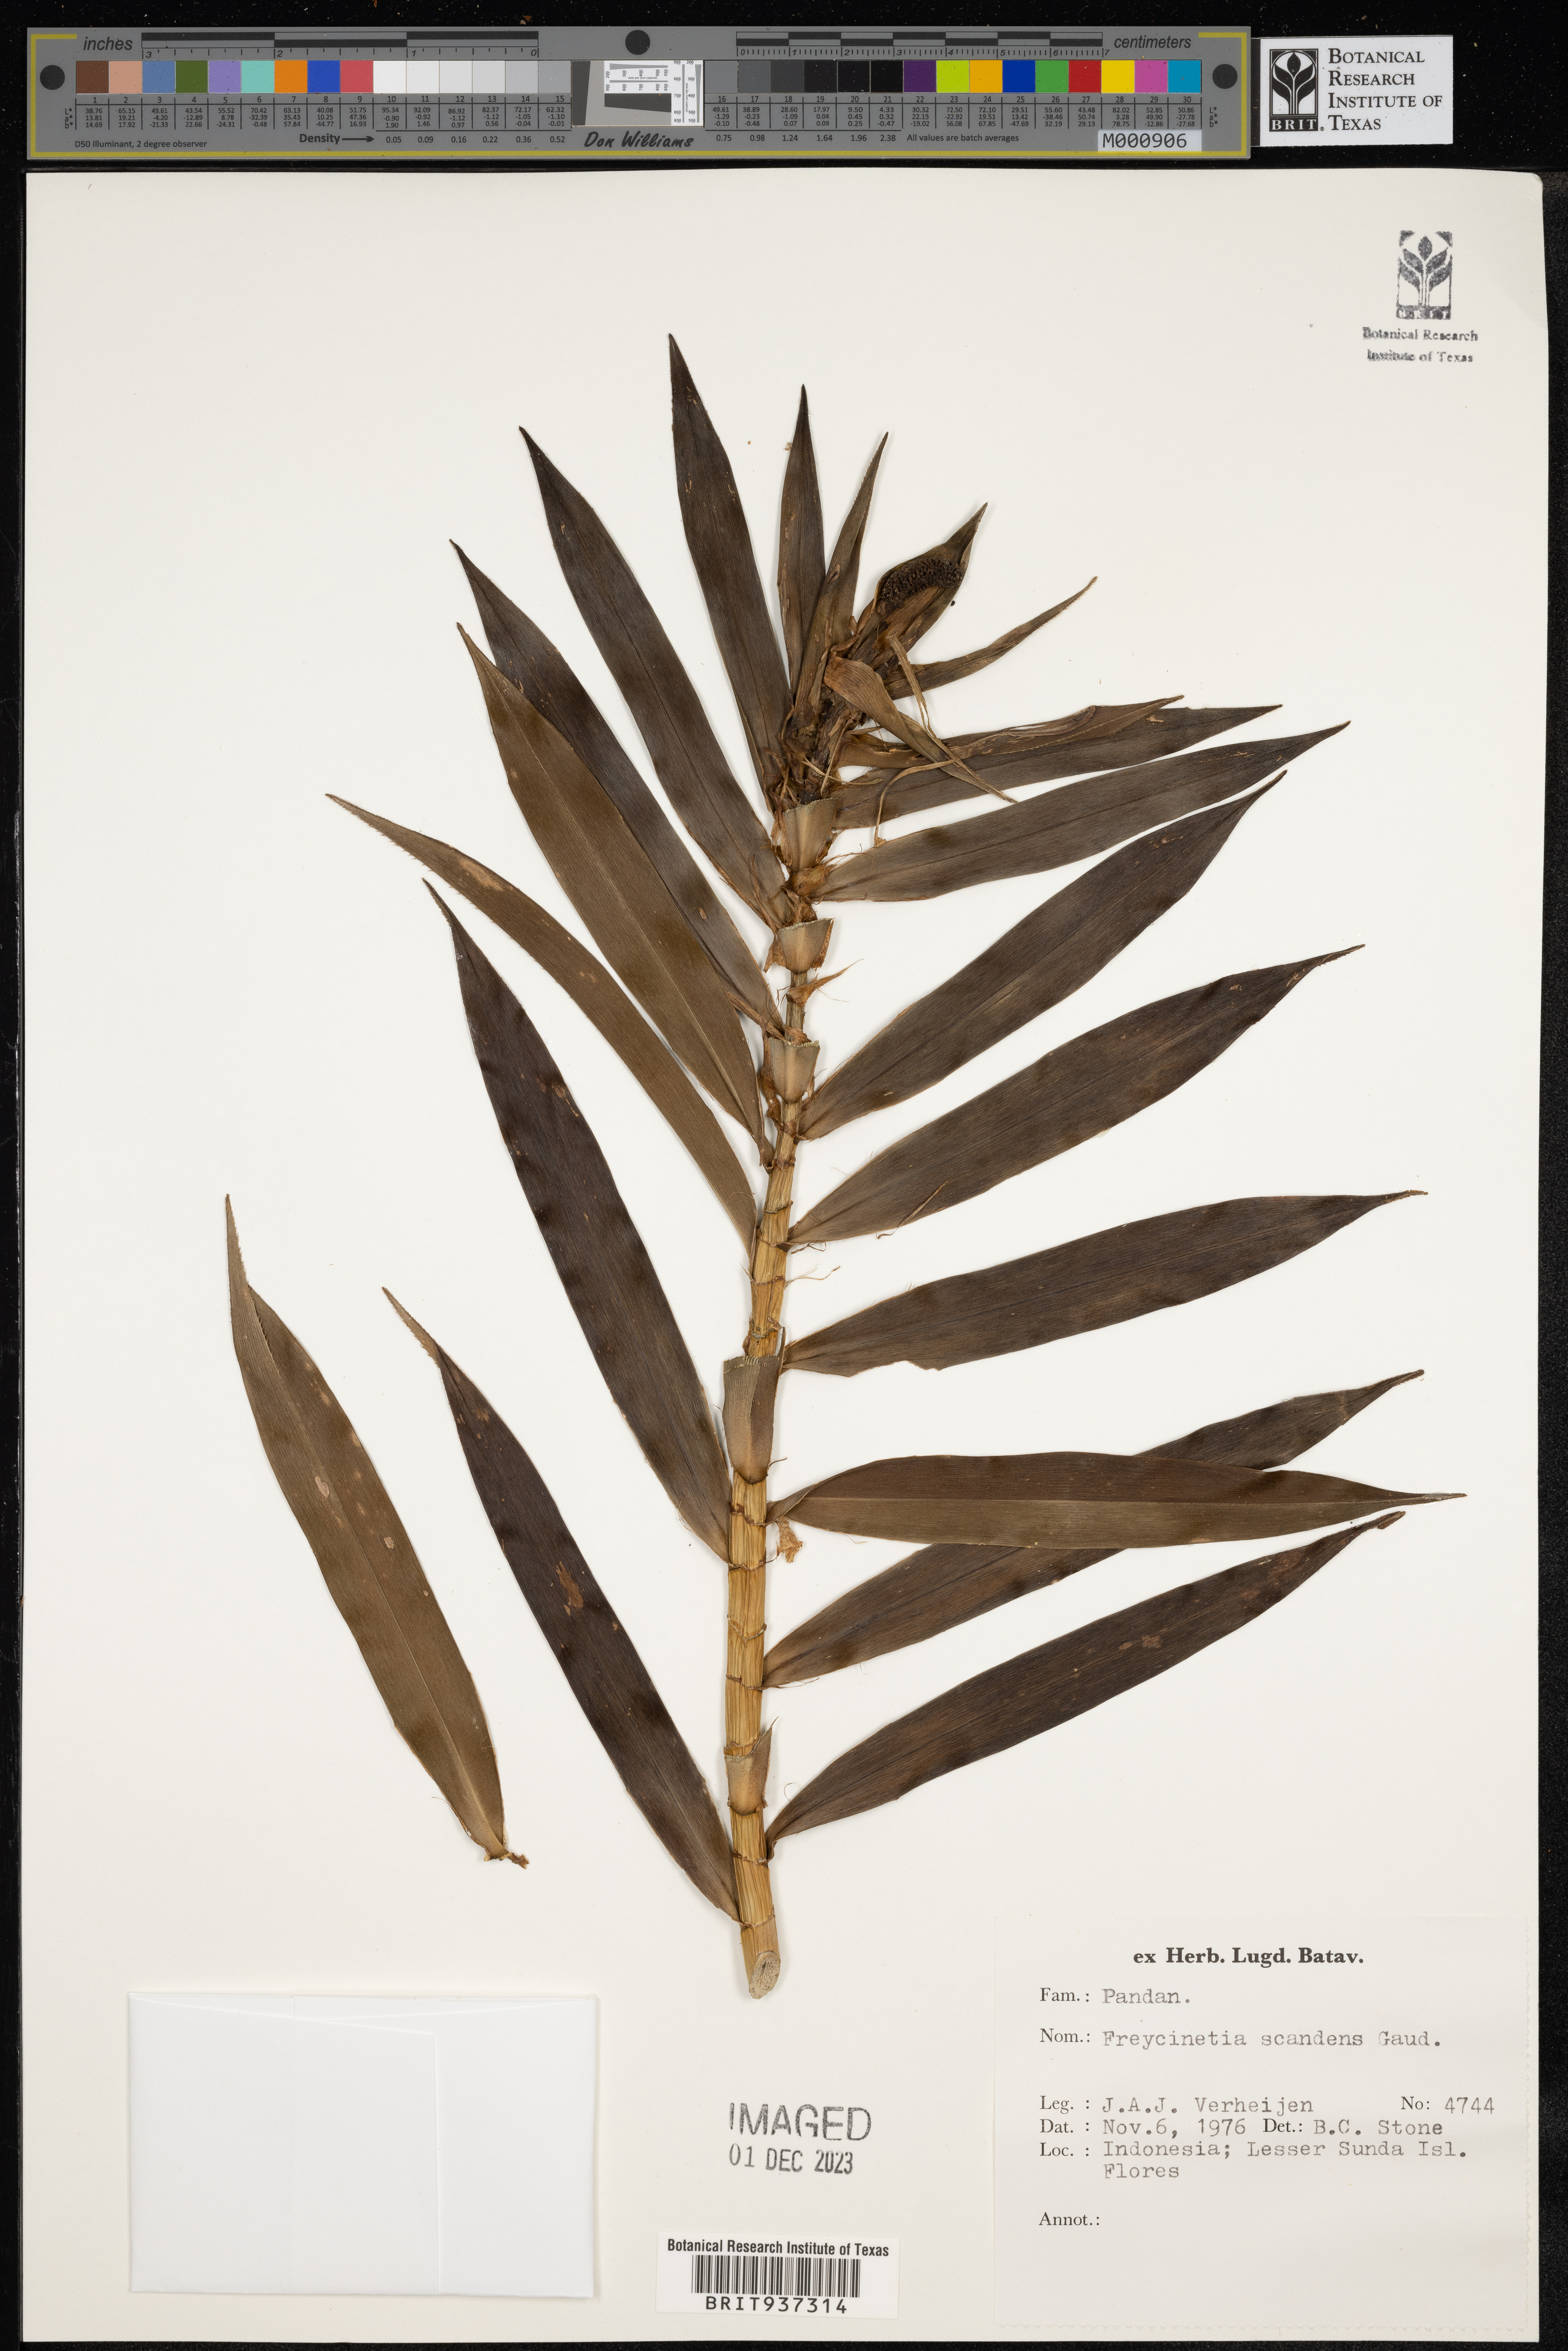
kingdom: Plantae
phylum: Tracheophyta
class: Liliopsida
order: Pandanales
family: Pandanaceae
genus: Freycinetia
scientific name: Freycinetia
